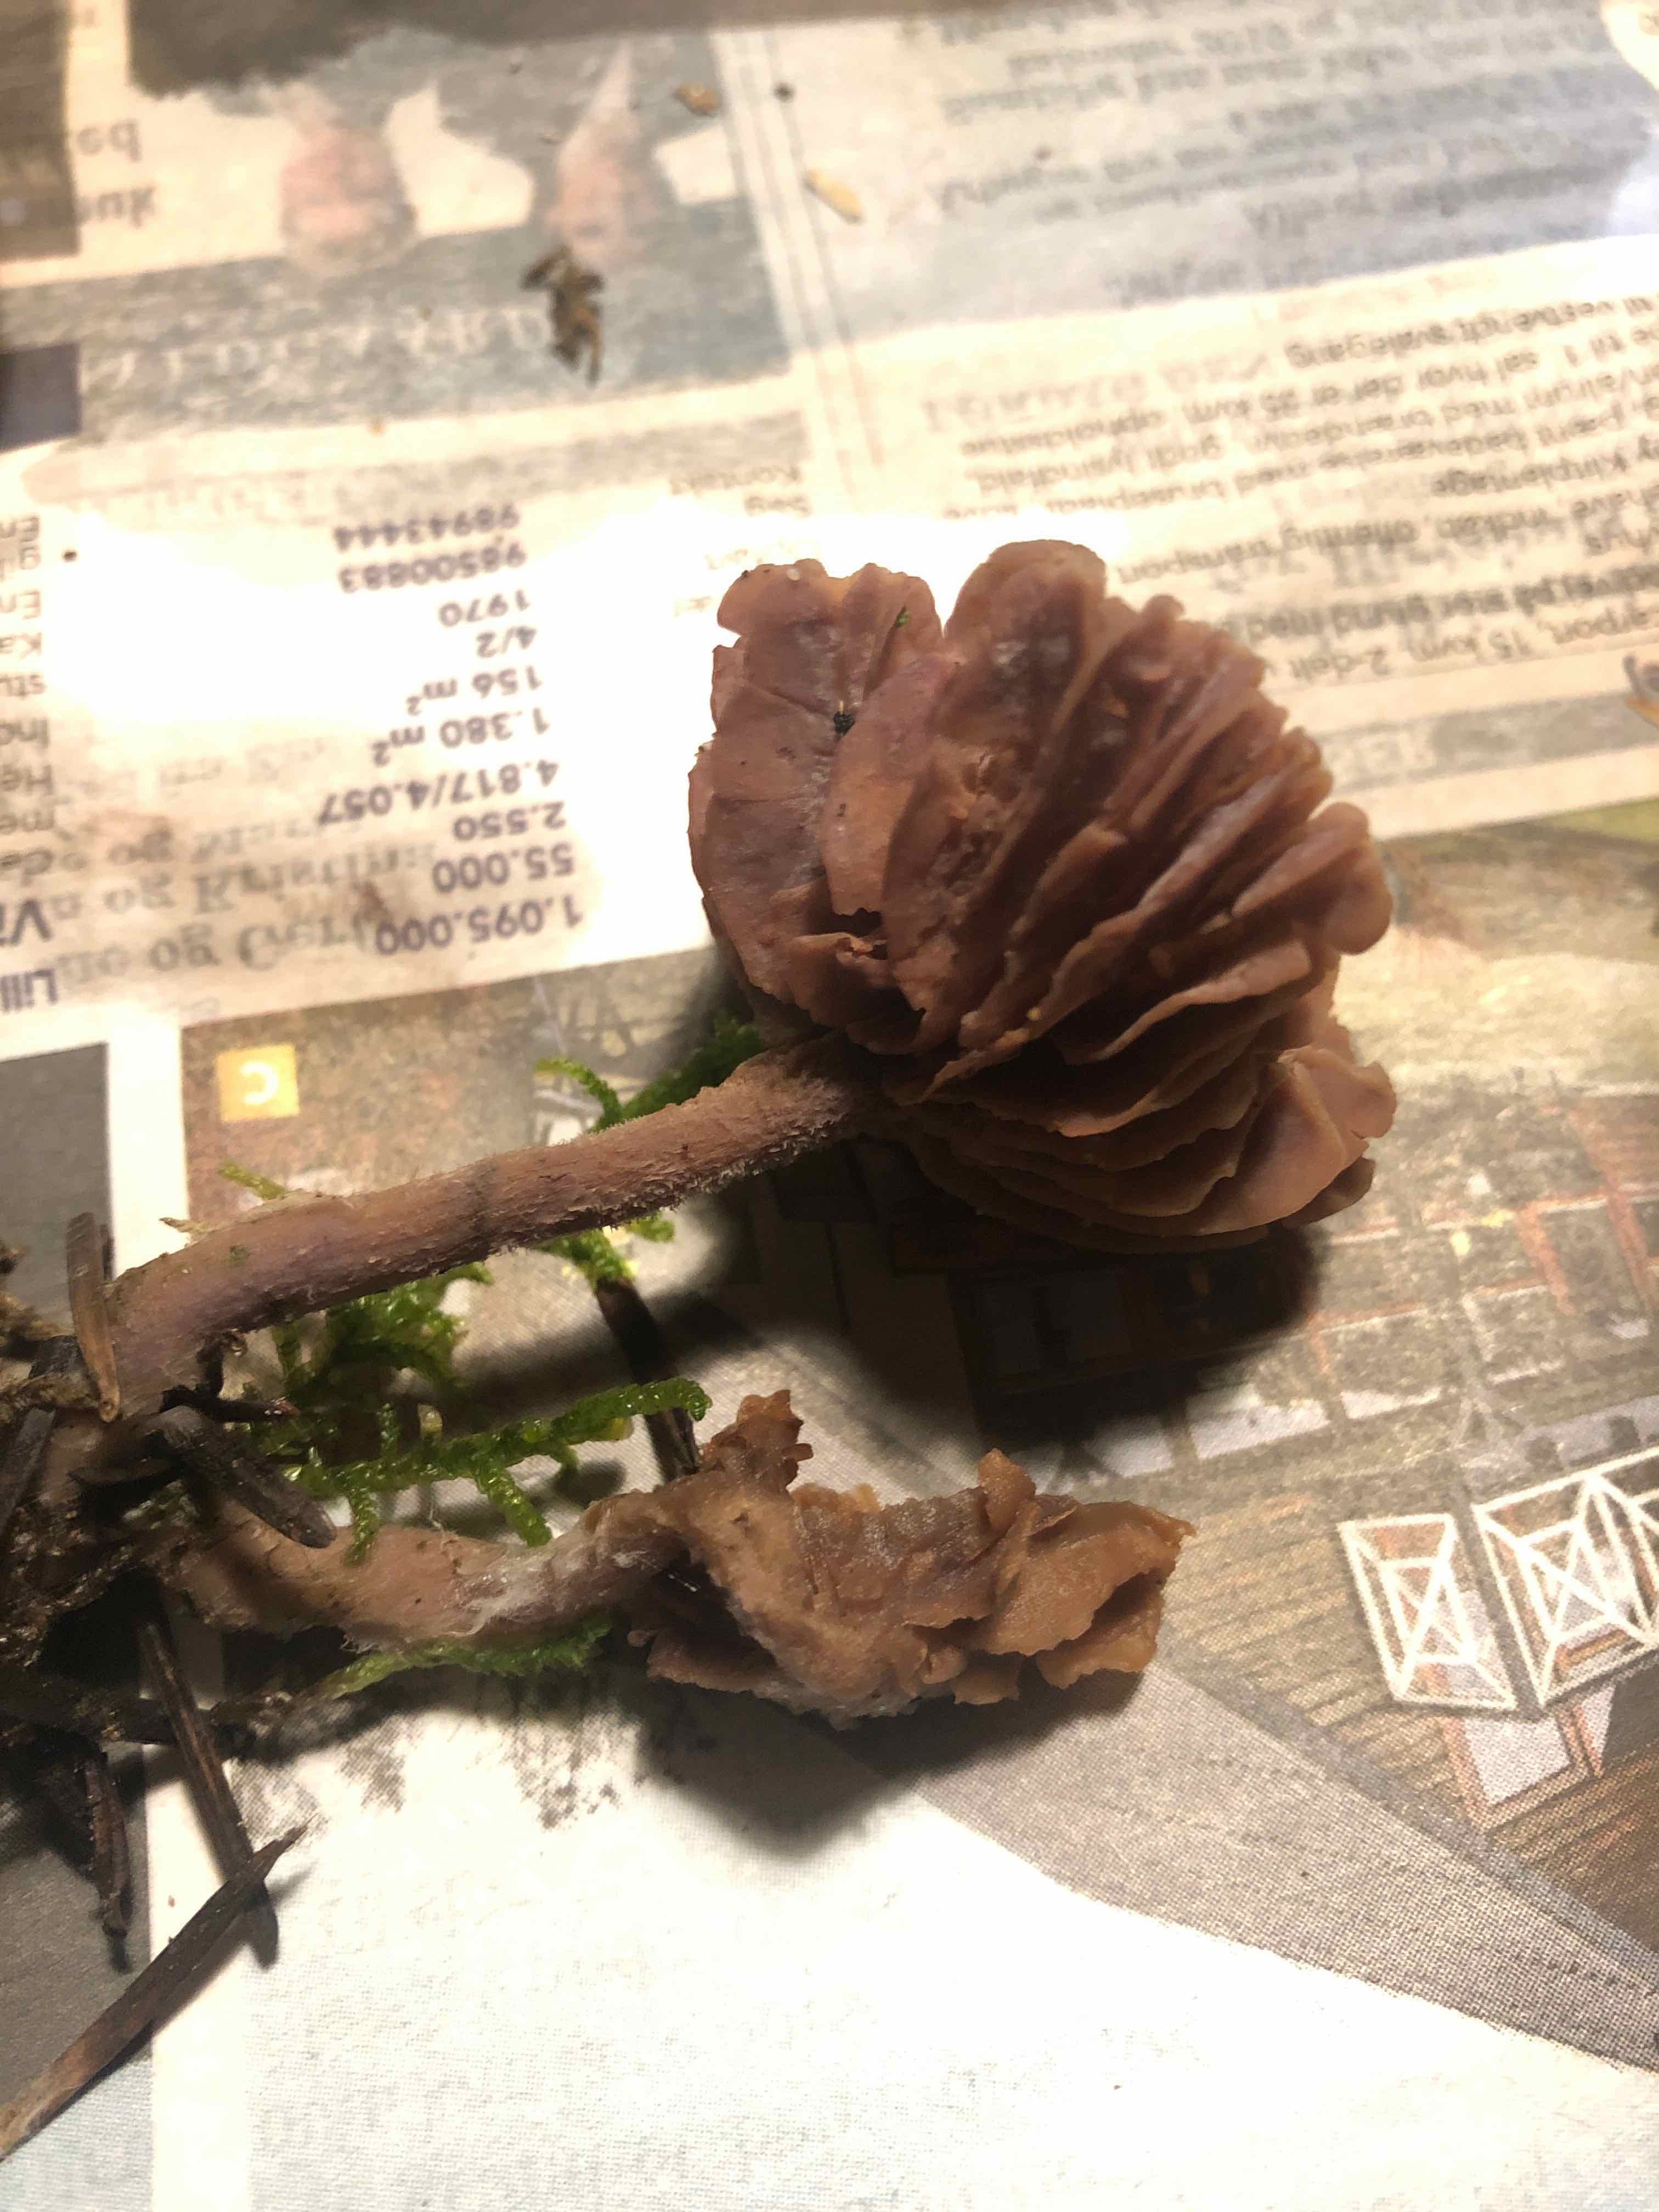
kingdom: Fungi
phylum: Basidiomycota
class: Agaricomycetes
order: Agaricales
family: Hydnangiaceae
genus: Laccaria
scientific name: Laccaria amethystina
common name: violet ametysthat
